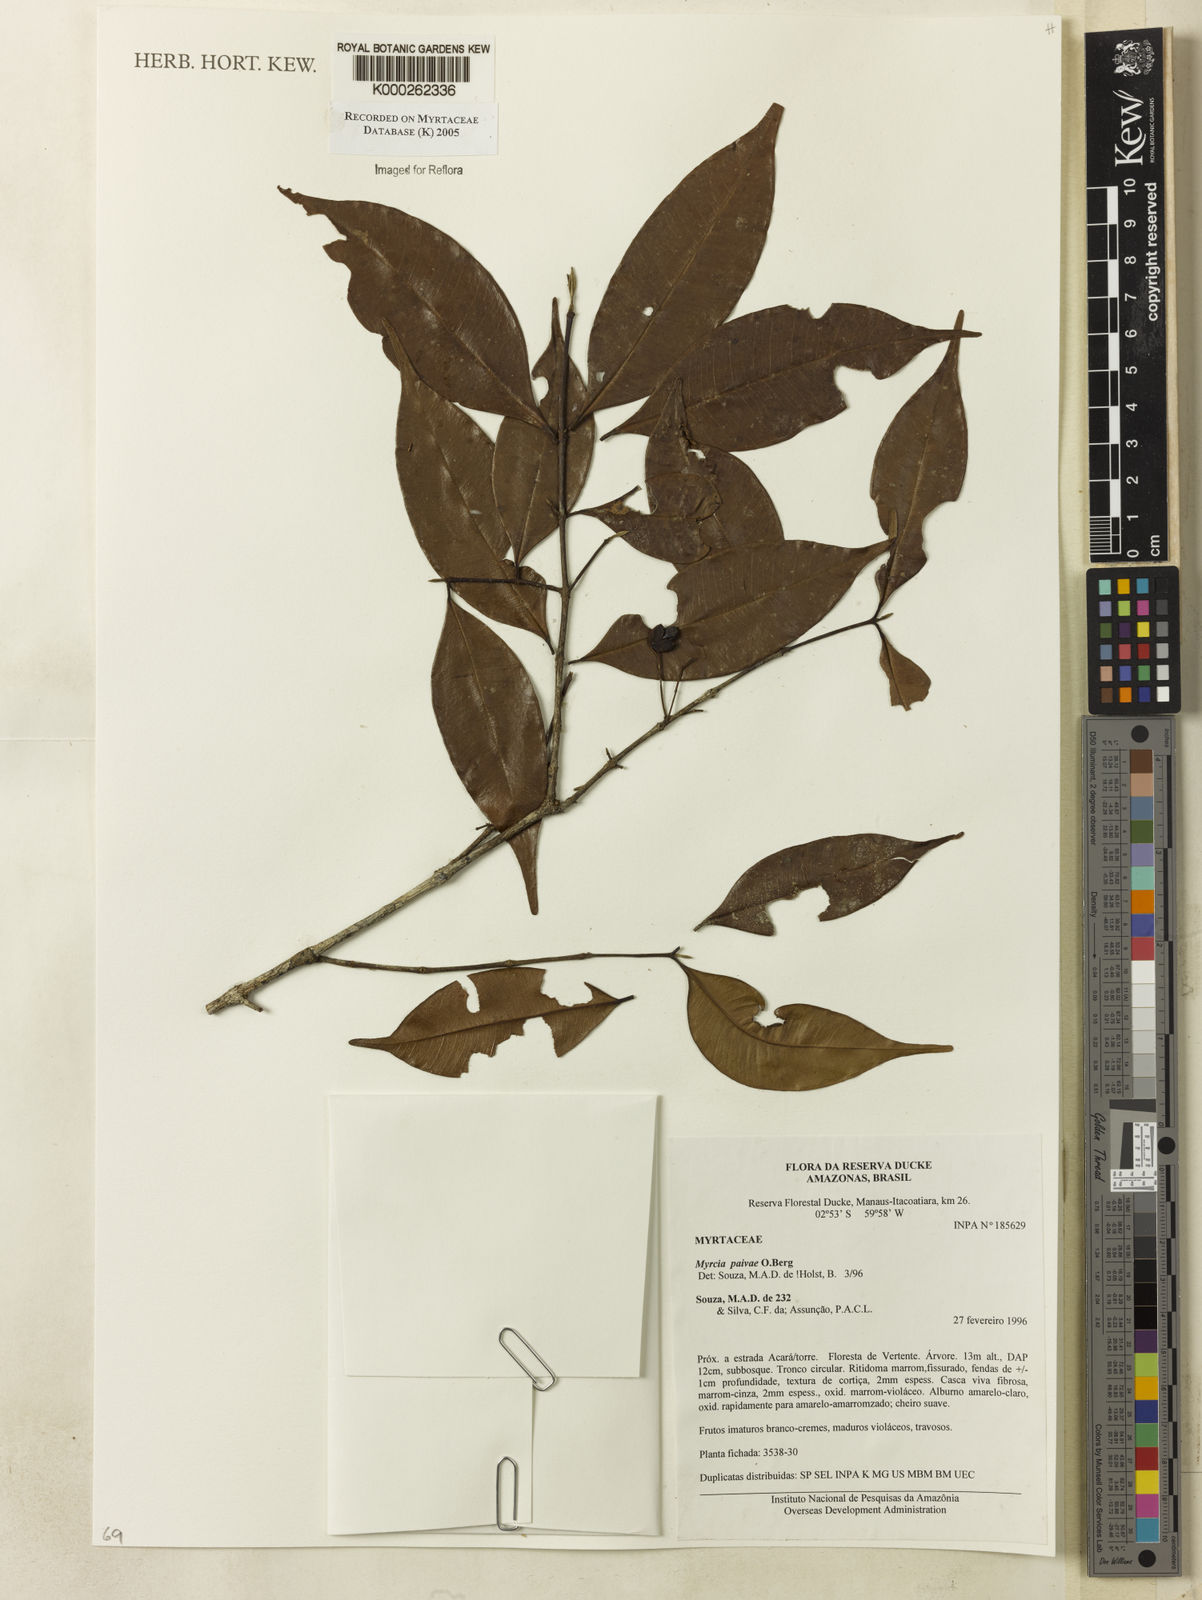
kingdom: Plantae
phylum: Tracheophyta
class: Magnoliopsida
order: Myrtales
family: Myrtaceae
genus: Myrcia
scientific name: Myrcia paivae
